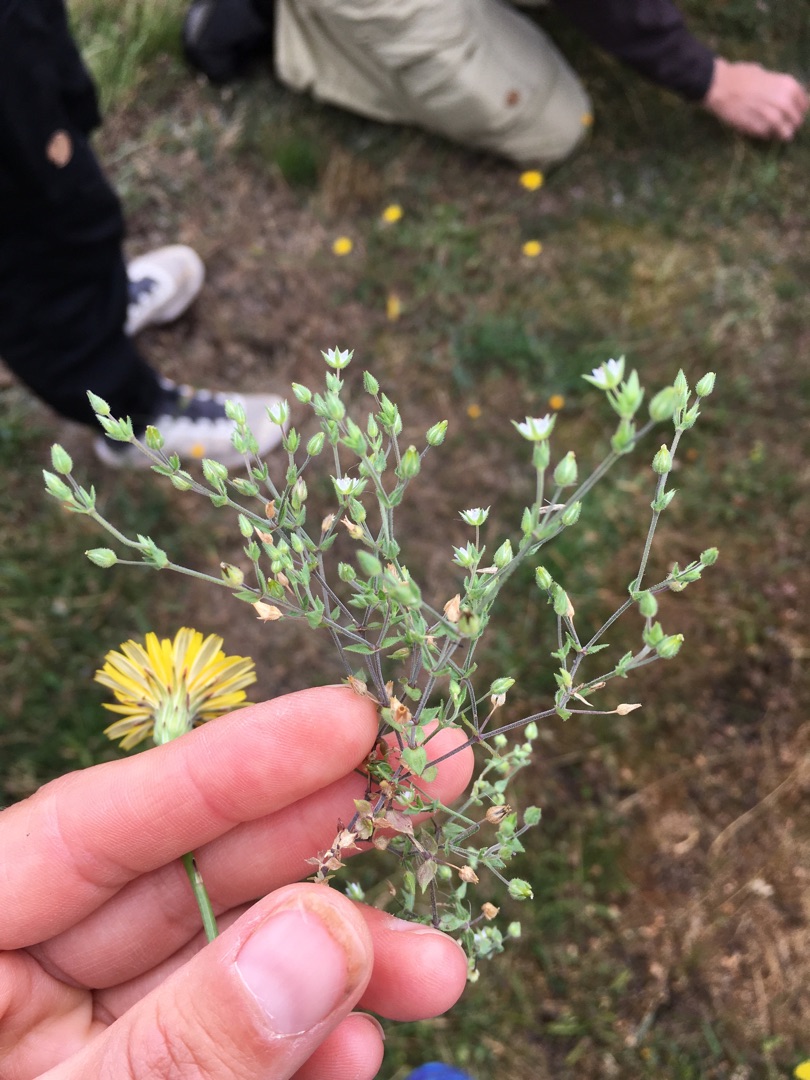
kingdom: Plantae
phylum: Tracheophyta
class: Magnoliopsida
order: Caryophyllales
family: Caryophyllaceae
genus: Arenaria
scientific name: Arenaria serpyllifolia
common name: Almindelig markarve
